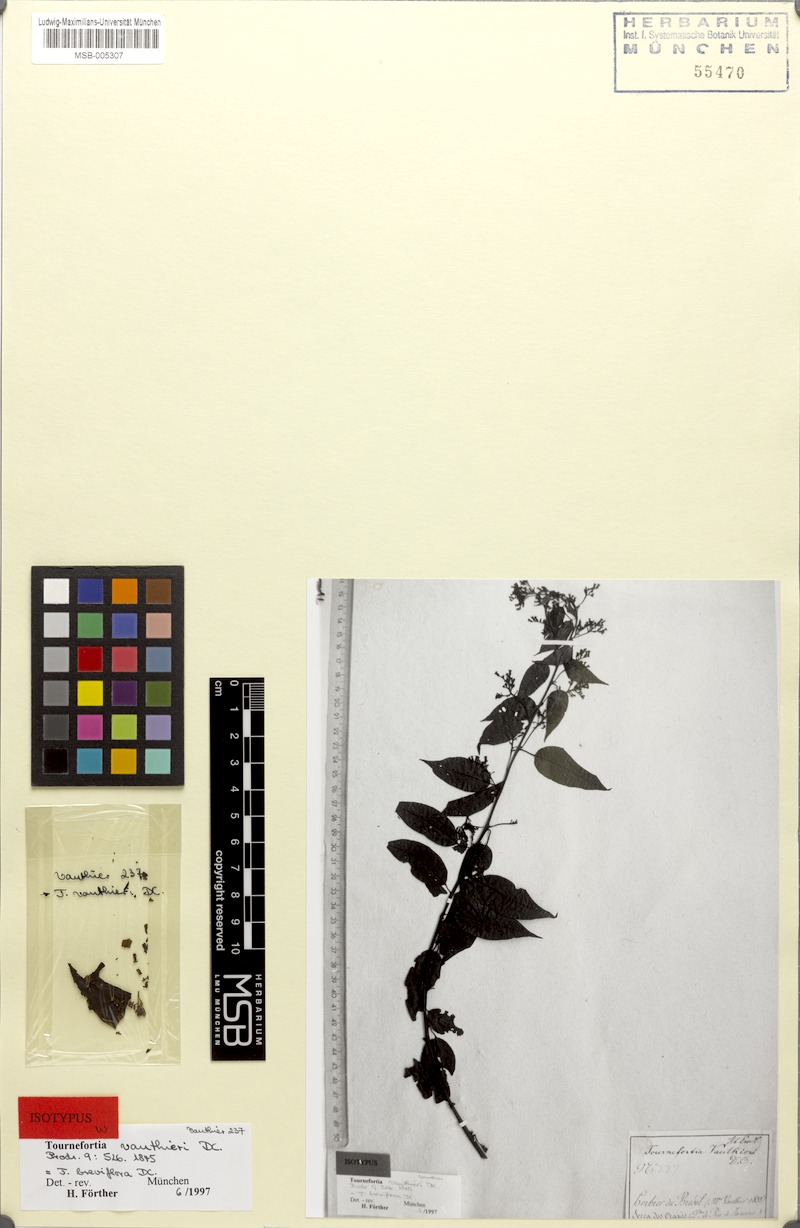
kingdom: Plantae
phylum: Tracheophyta
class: Magnoliopsida
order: Boraginales
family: Heliotropiaceae
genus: Myriopus
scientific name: Myriopus breviflorus
